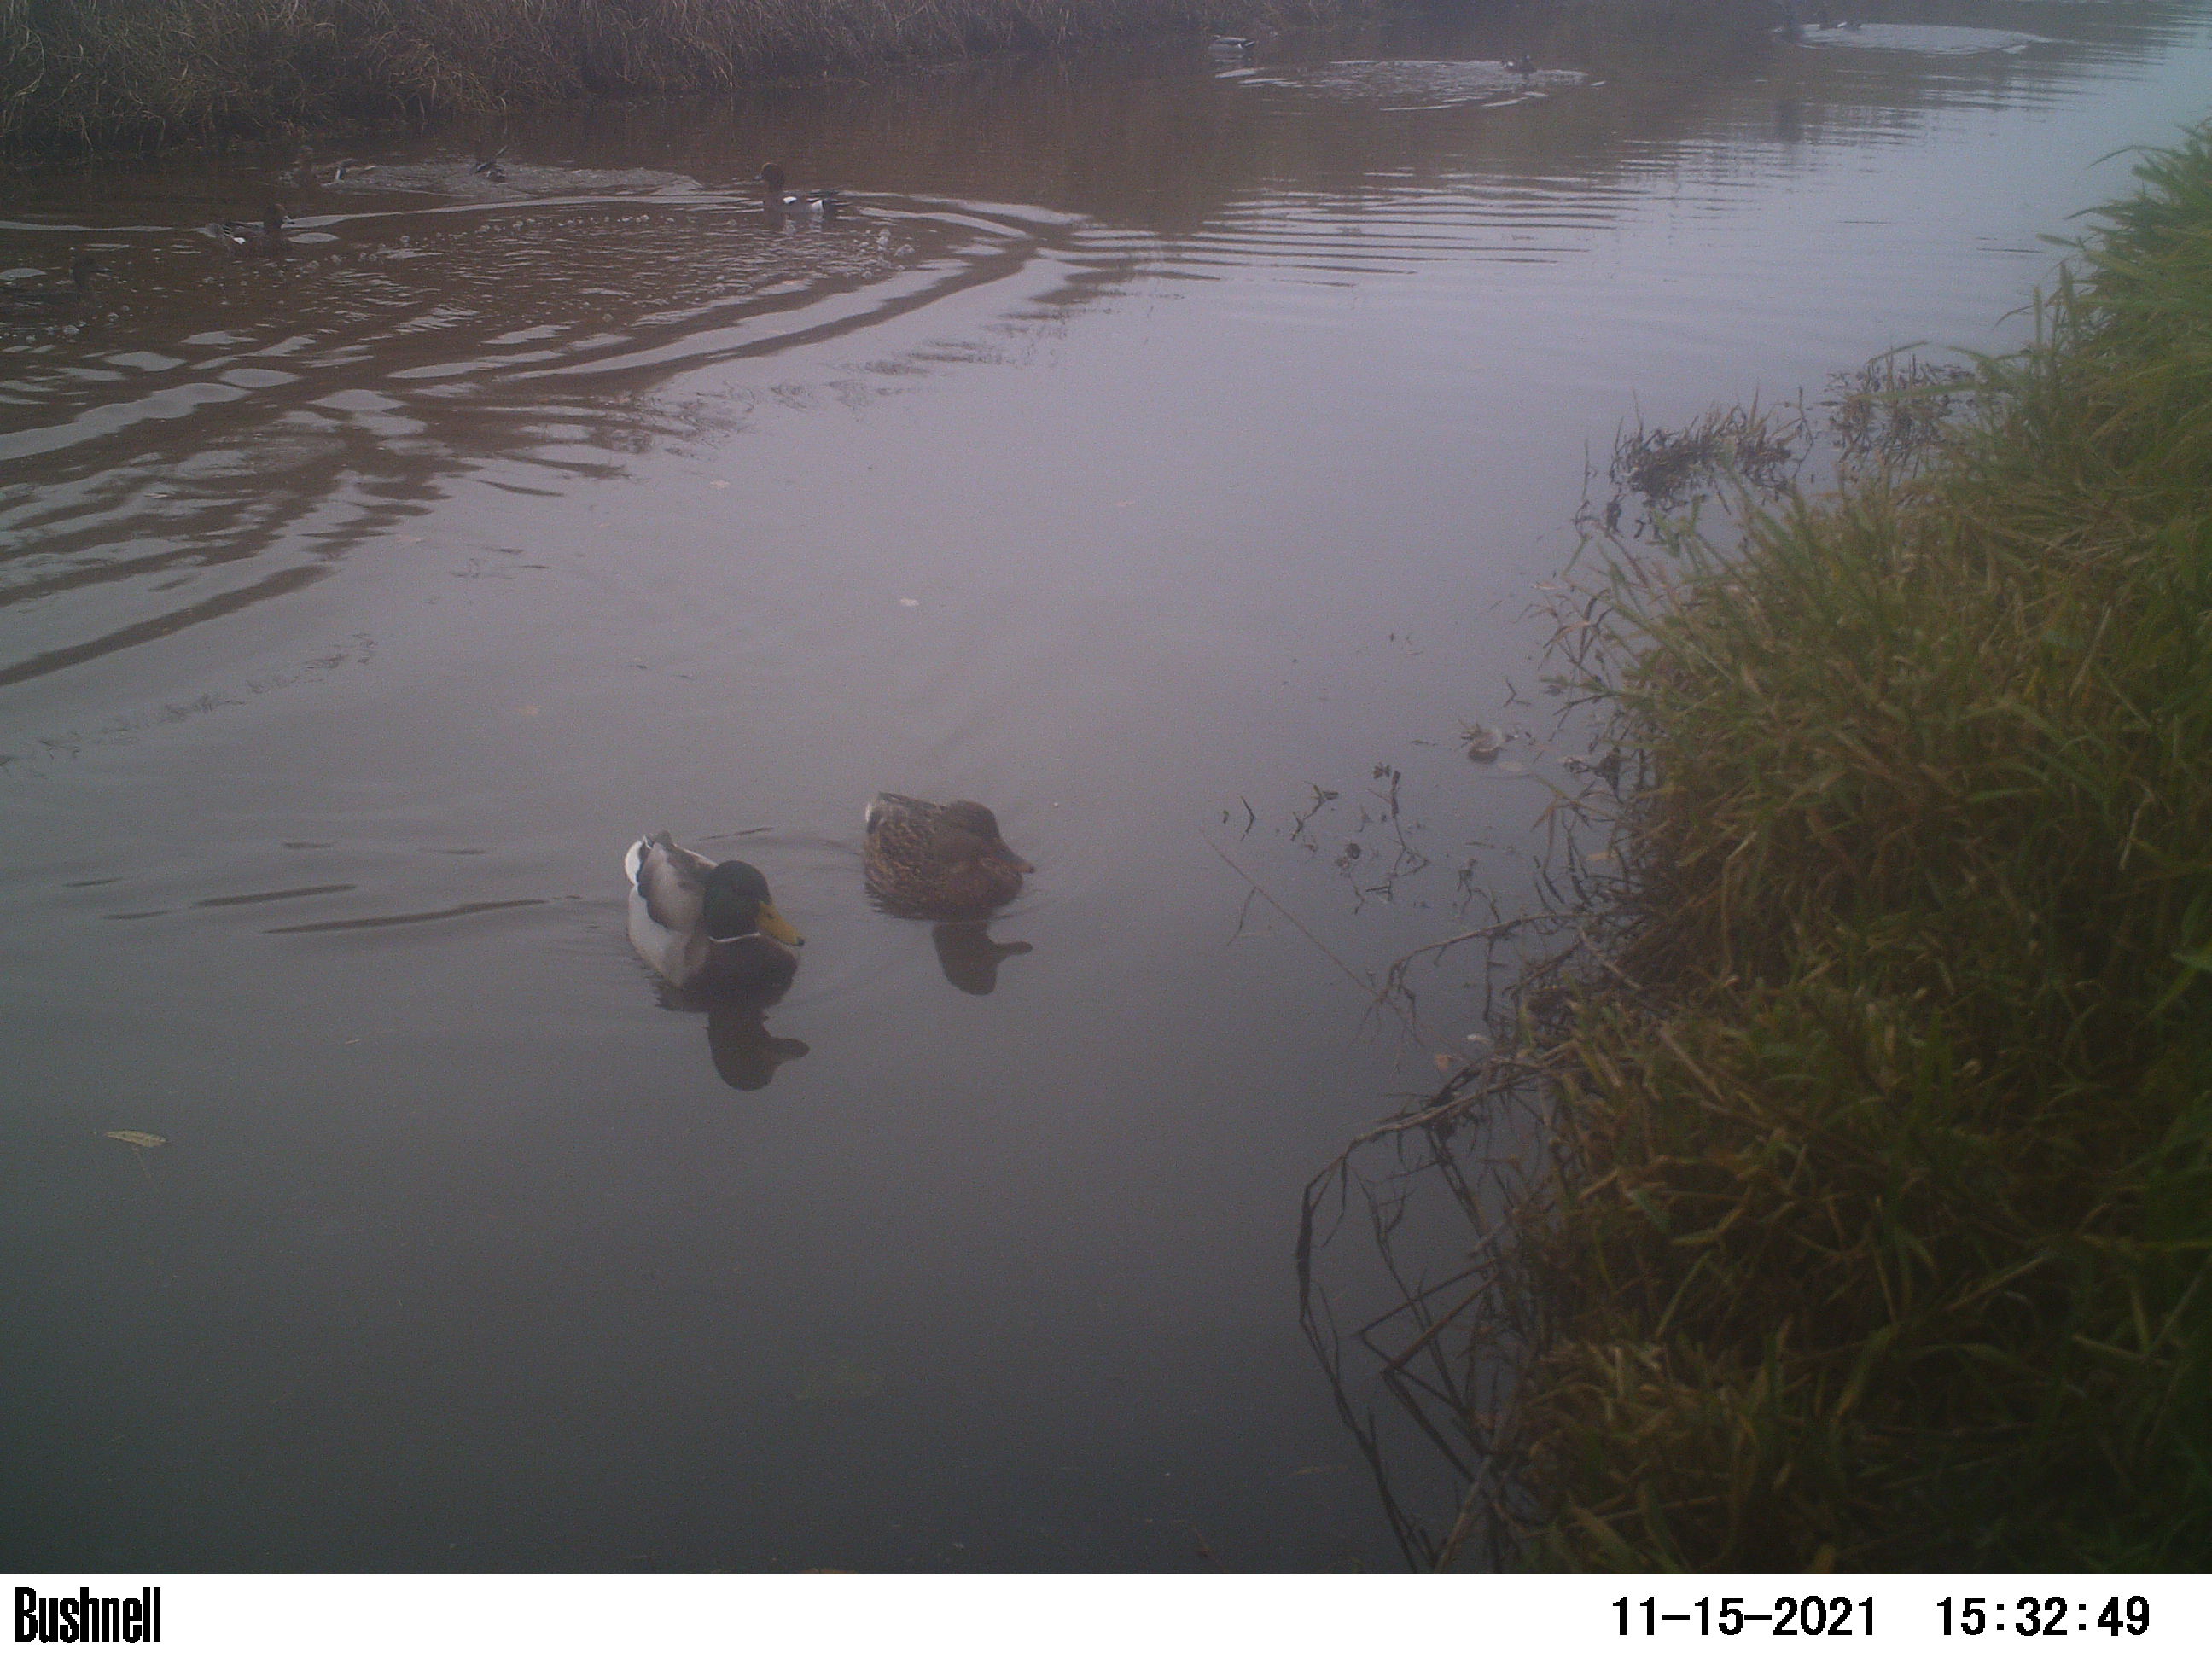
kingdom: Animalia
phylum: Chordata
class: Aves
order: Anseriformes
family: Anatidae
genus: Anas
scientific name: Anas
